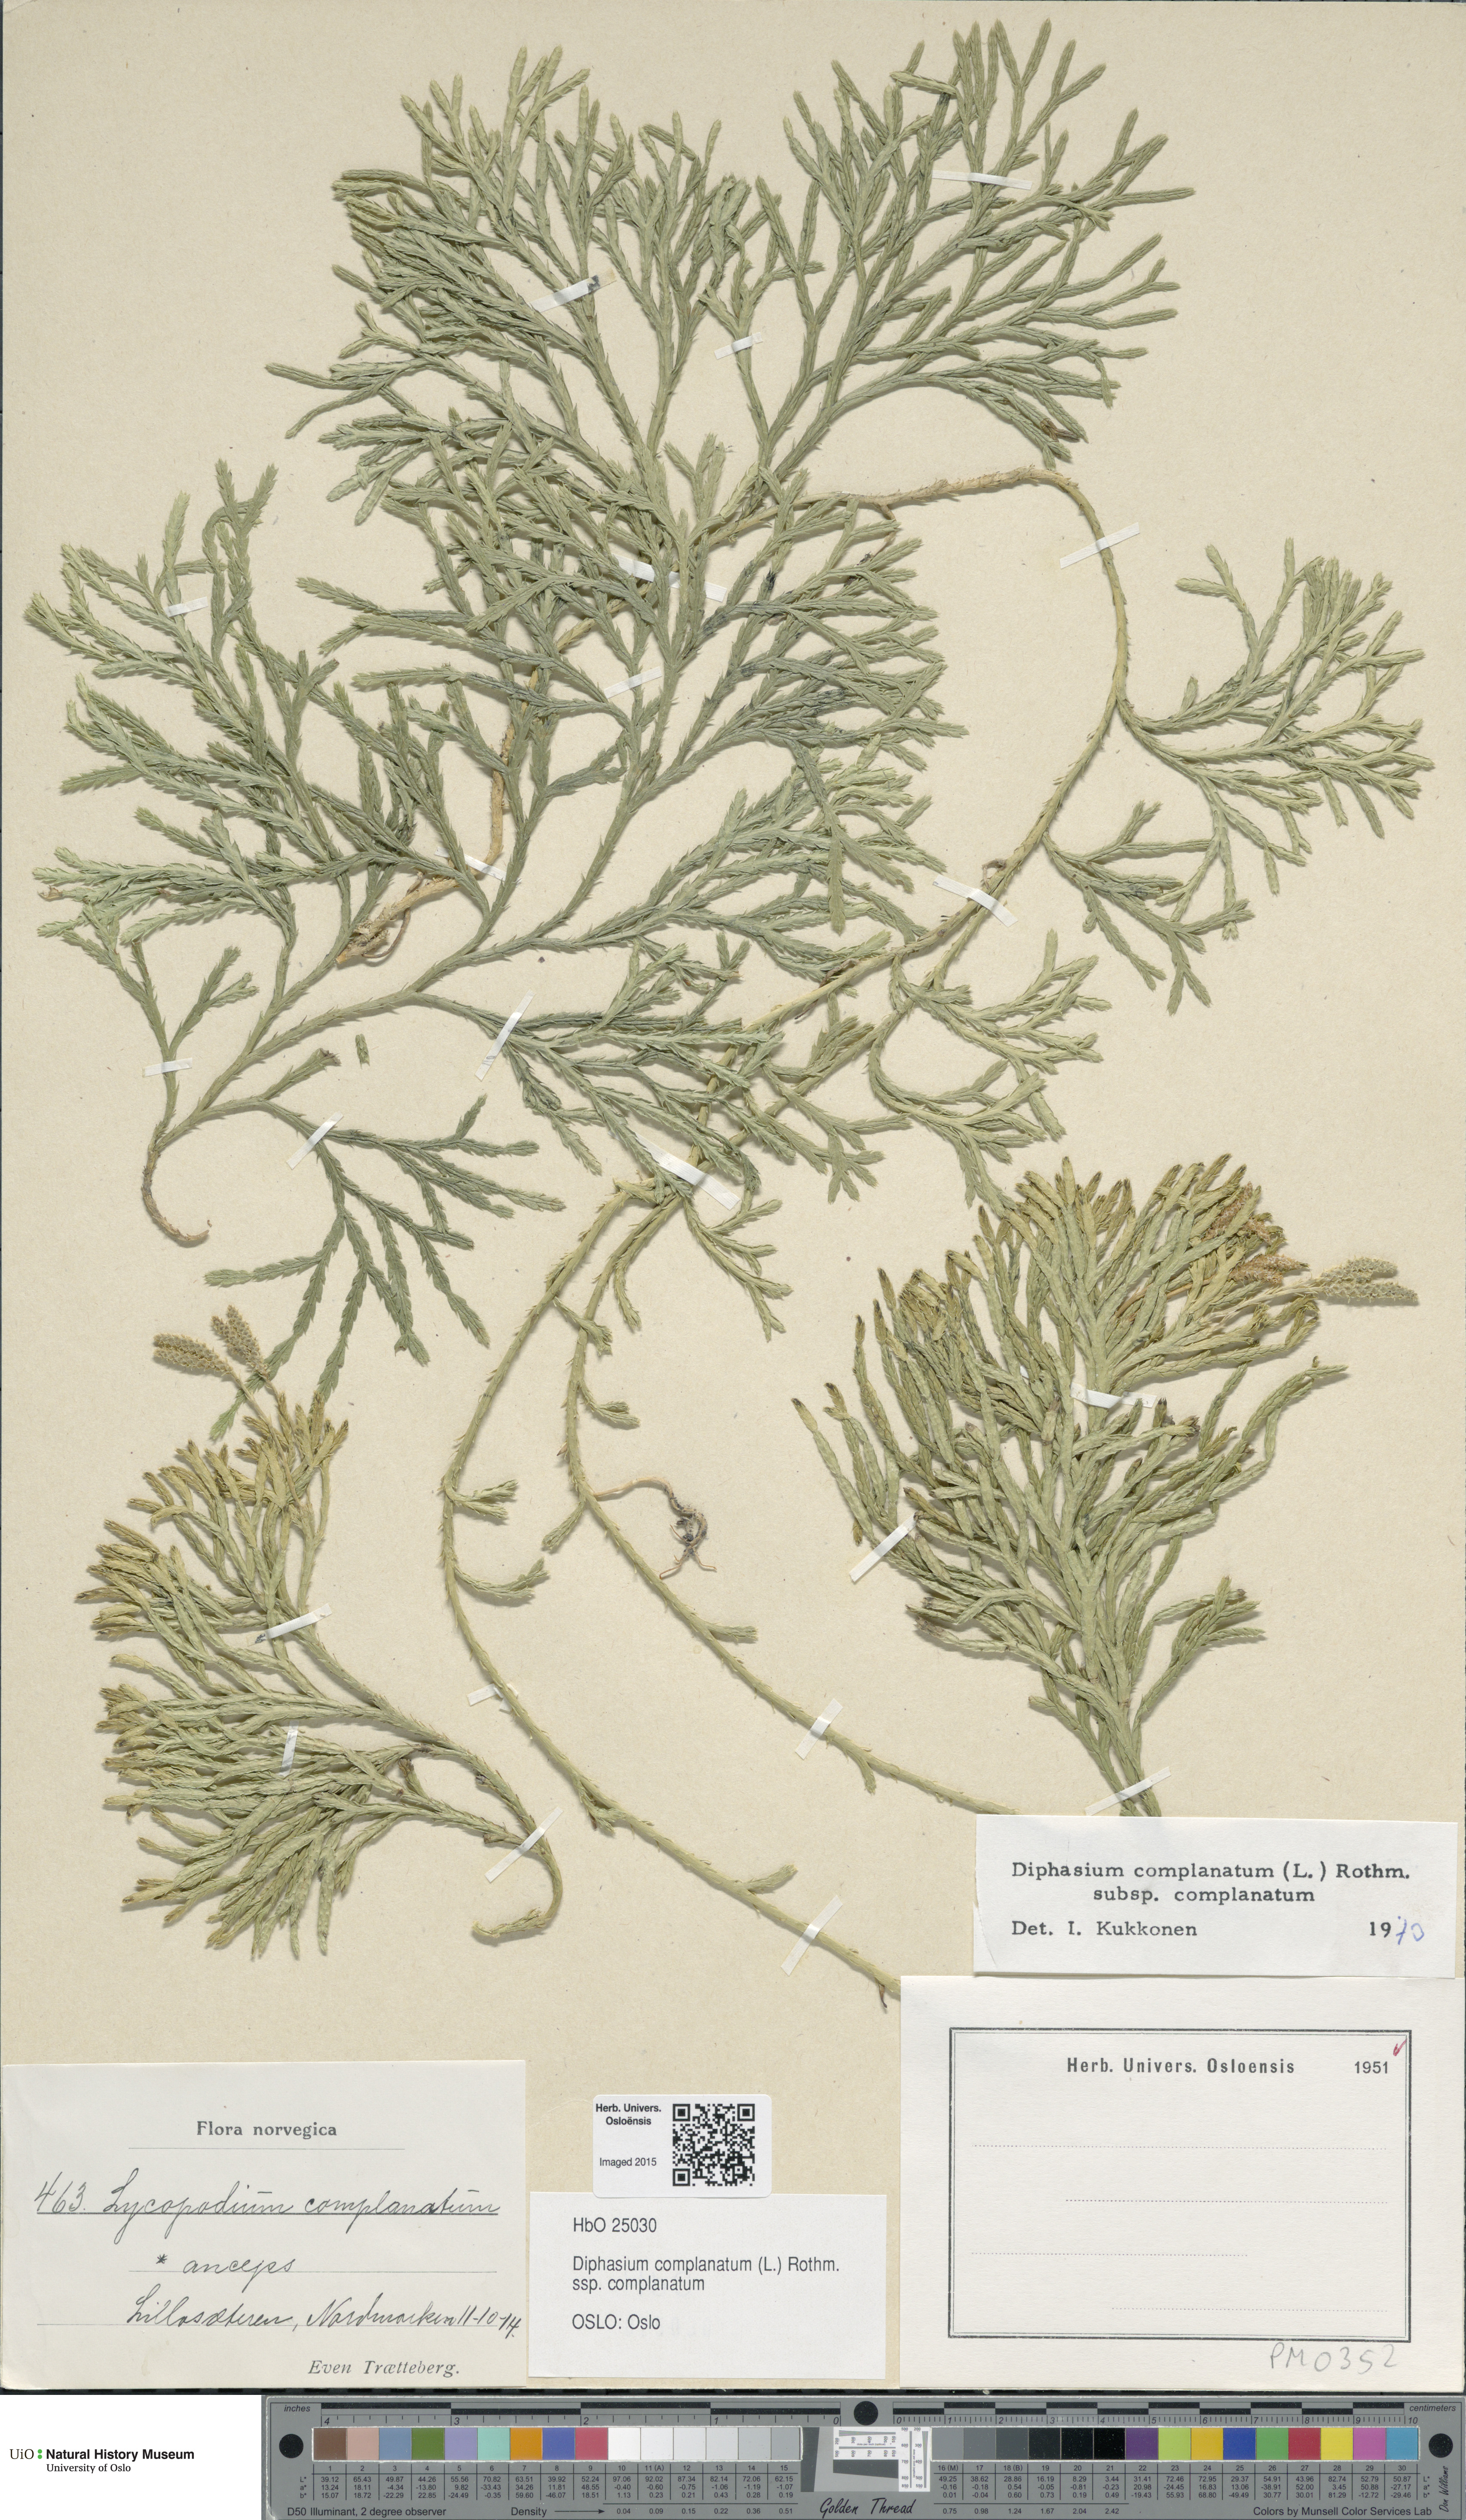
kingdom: Plantae
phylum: Tracheophyta
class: Lycopodiopsida
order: Lycopodiales
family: Lycopodiaceae
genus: Diphasiastrum
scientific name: Diphasiastrum complanatum
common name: Northern running-pine
